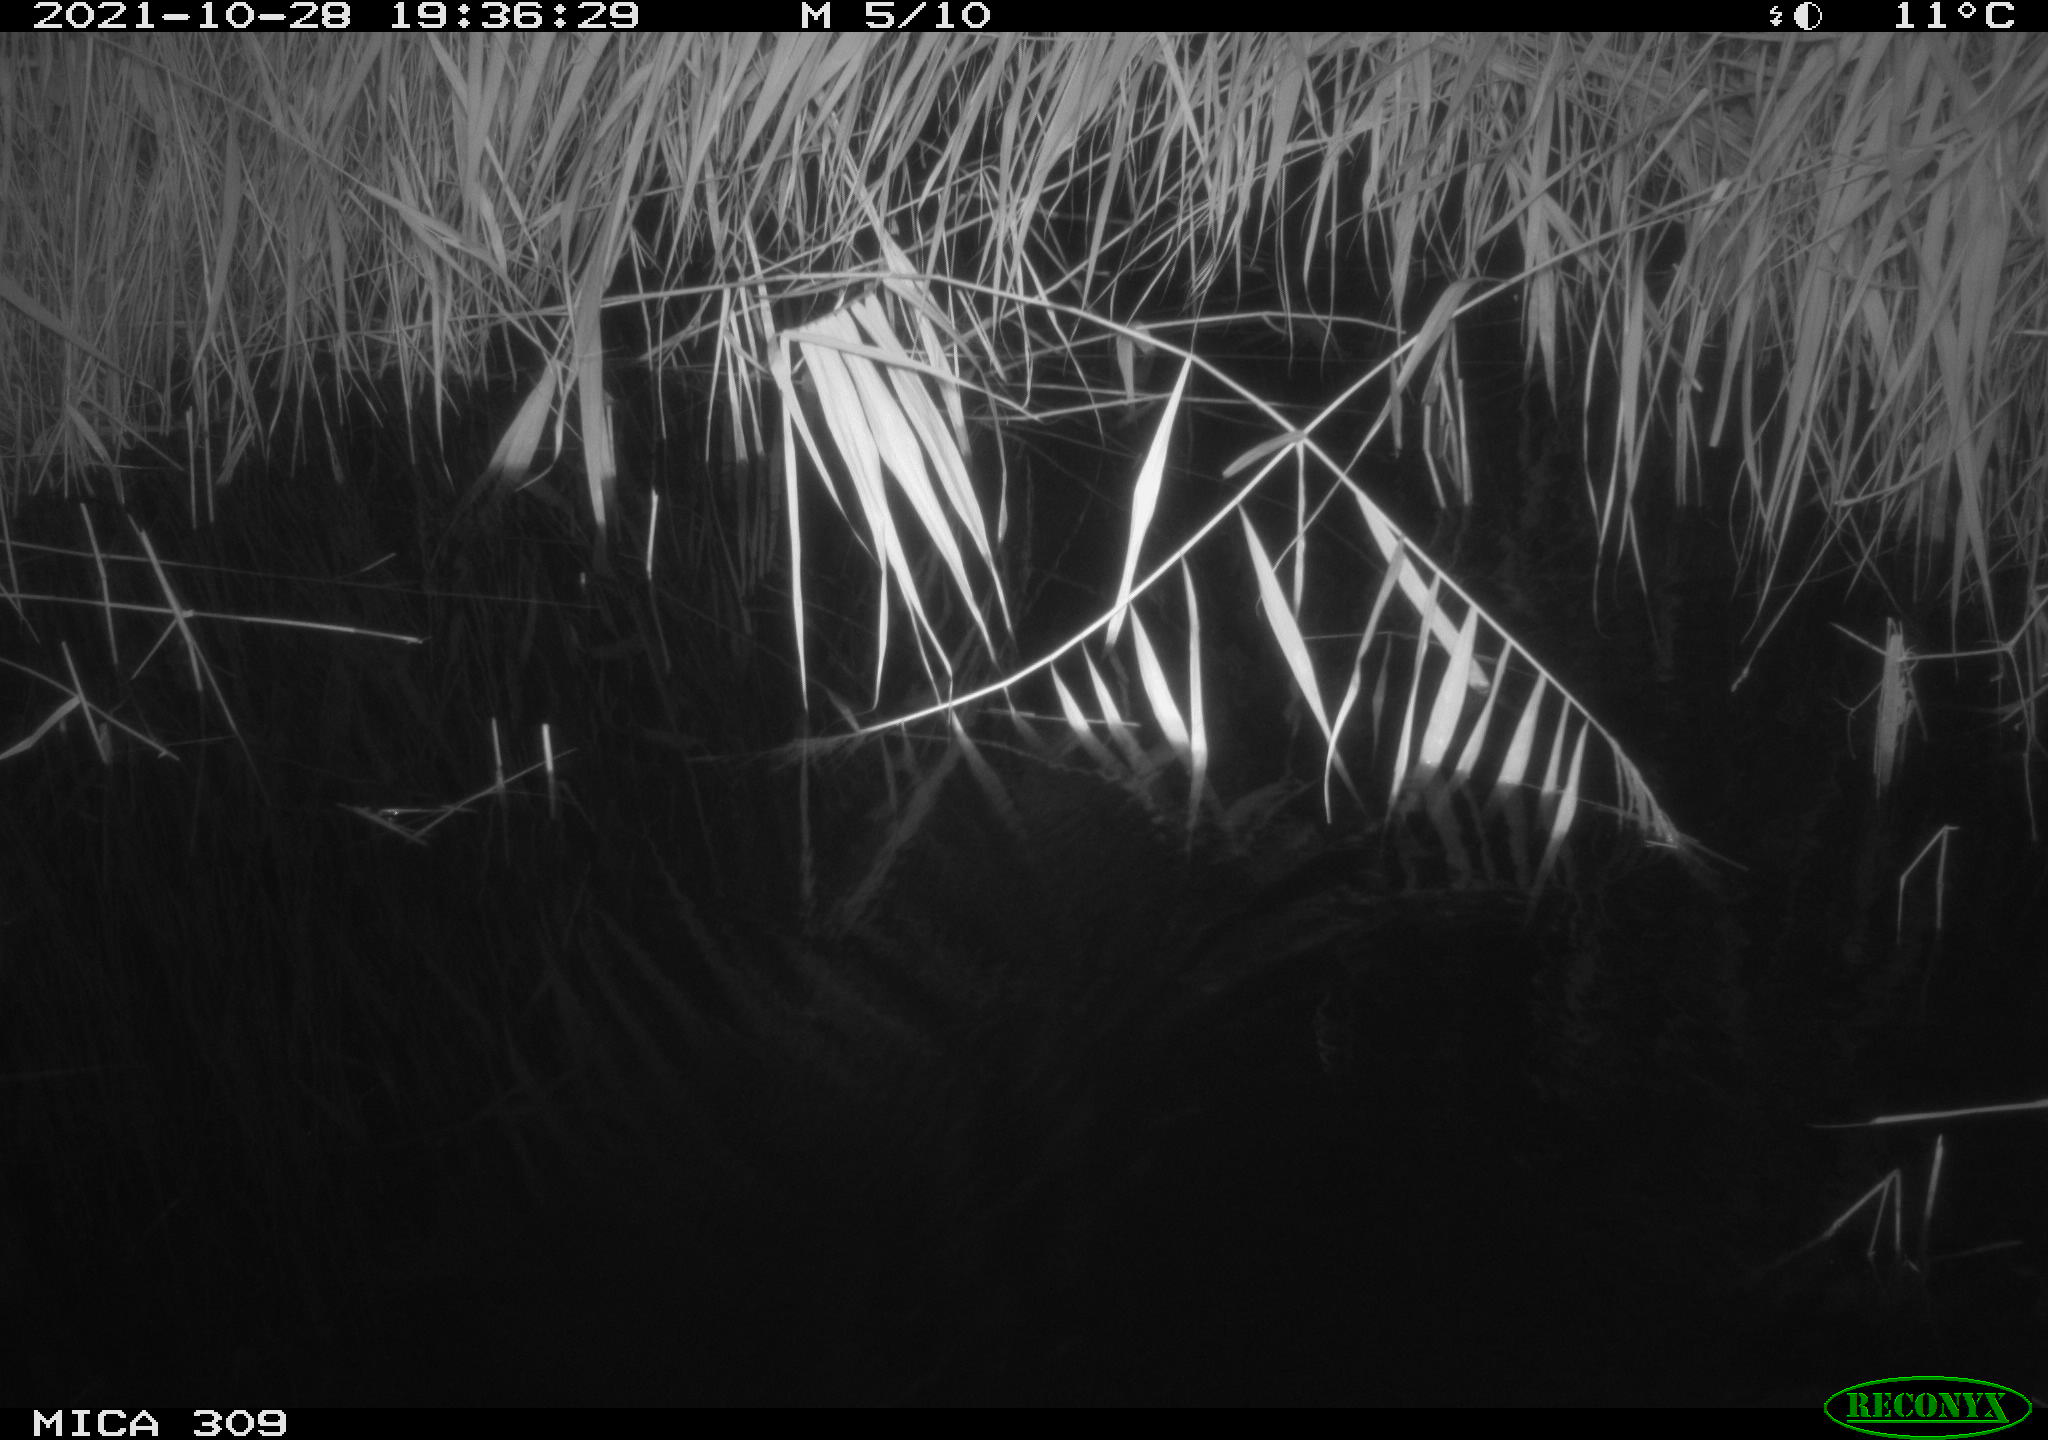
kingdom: Animalia
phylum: Chordata
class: Mammalia
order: Rodentia
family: Muridae
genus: Rattus
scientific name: Rattus norvegicus
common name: Brown rat
